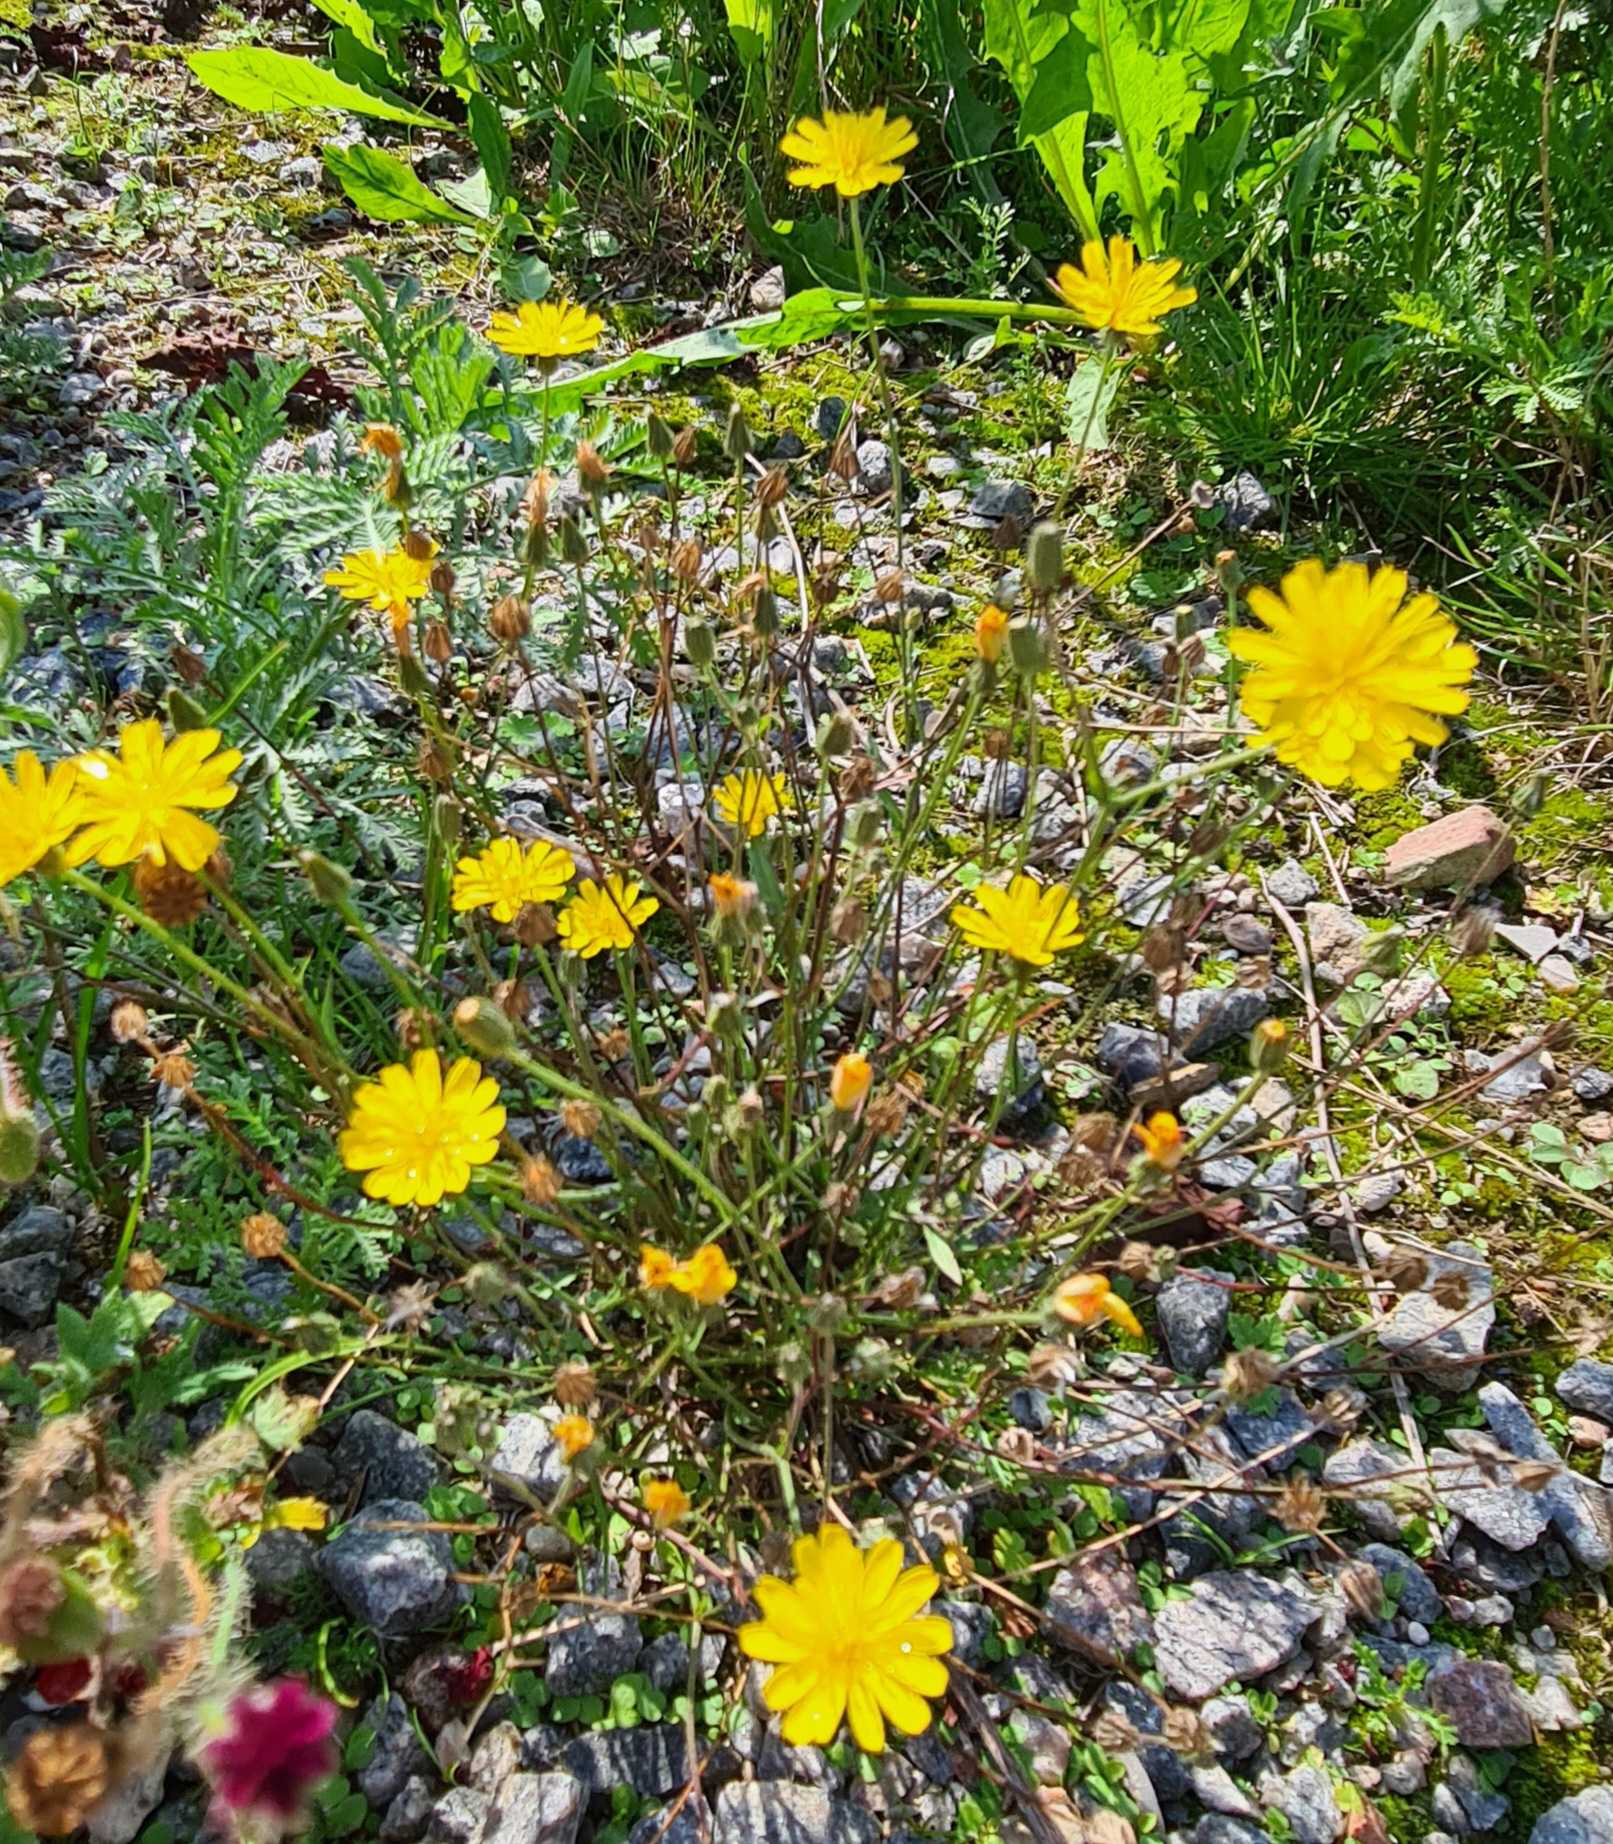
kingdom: Plantae
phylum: Tracheophyta
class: Magnoliopsida
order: Asterales
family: Asteraceae
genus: Hypochaeris
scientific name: Hypochaeris radicata
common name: Almindelig kongepen
